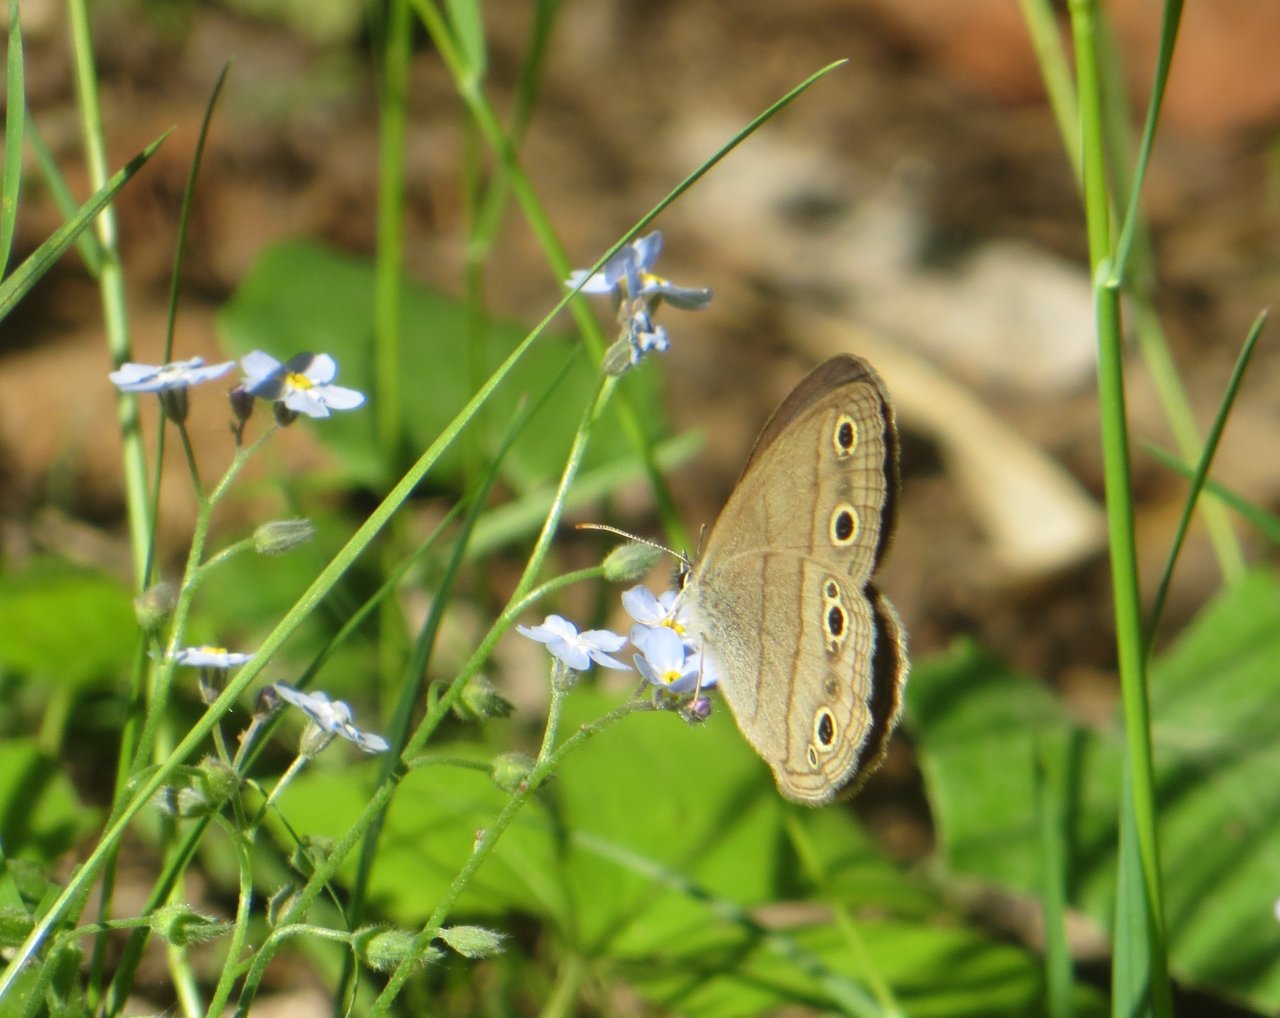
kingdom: Animalia
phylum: Arthropoda
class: Insecta
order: Lepidoptera
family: Nymphalidae
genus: Euptychia
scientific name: Euptychia cymela
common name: Little Wood Satyr
